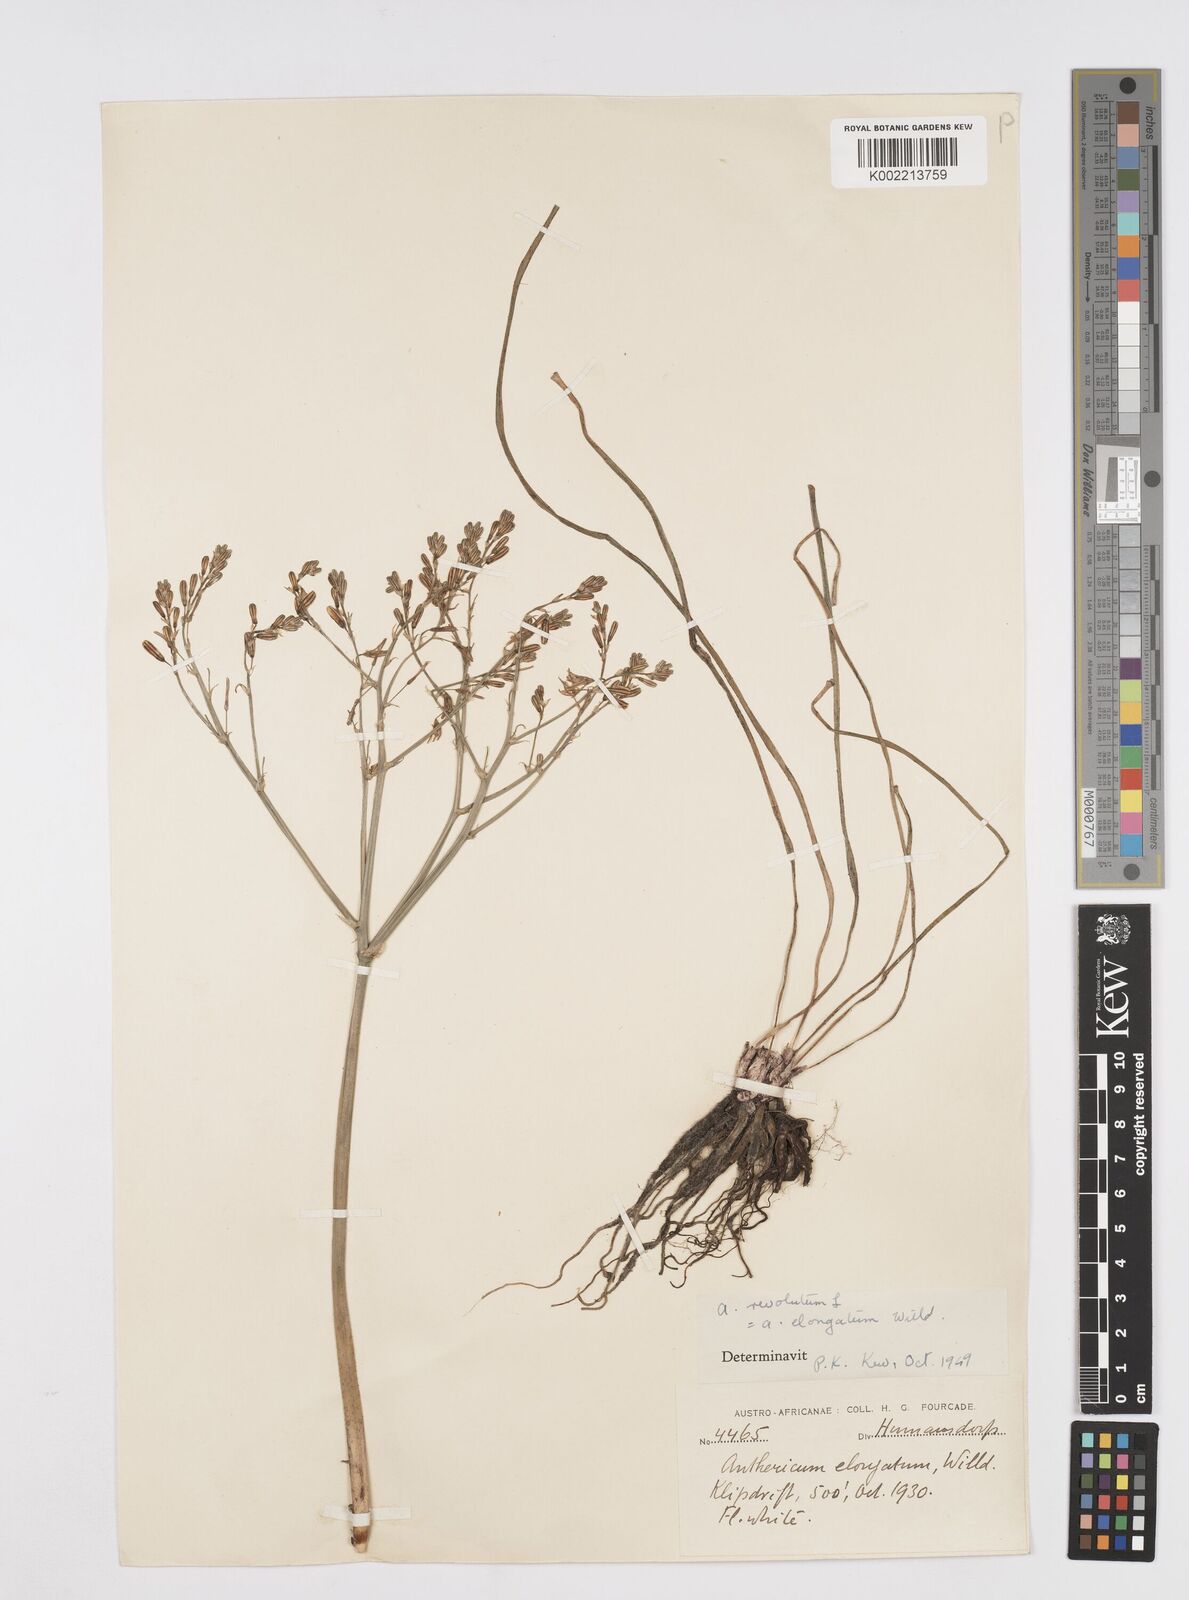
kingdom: Plantae
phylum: Tracheophyta
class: Liliopsida
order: Asparagales
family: Asphodelaceae
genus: Trachyandra
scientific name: Trachyandra revoluta
